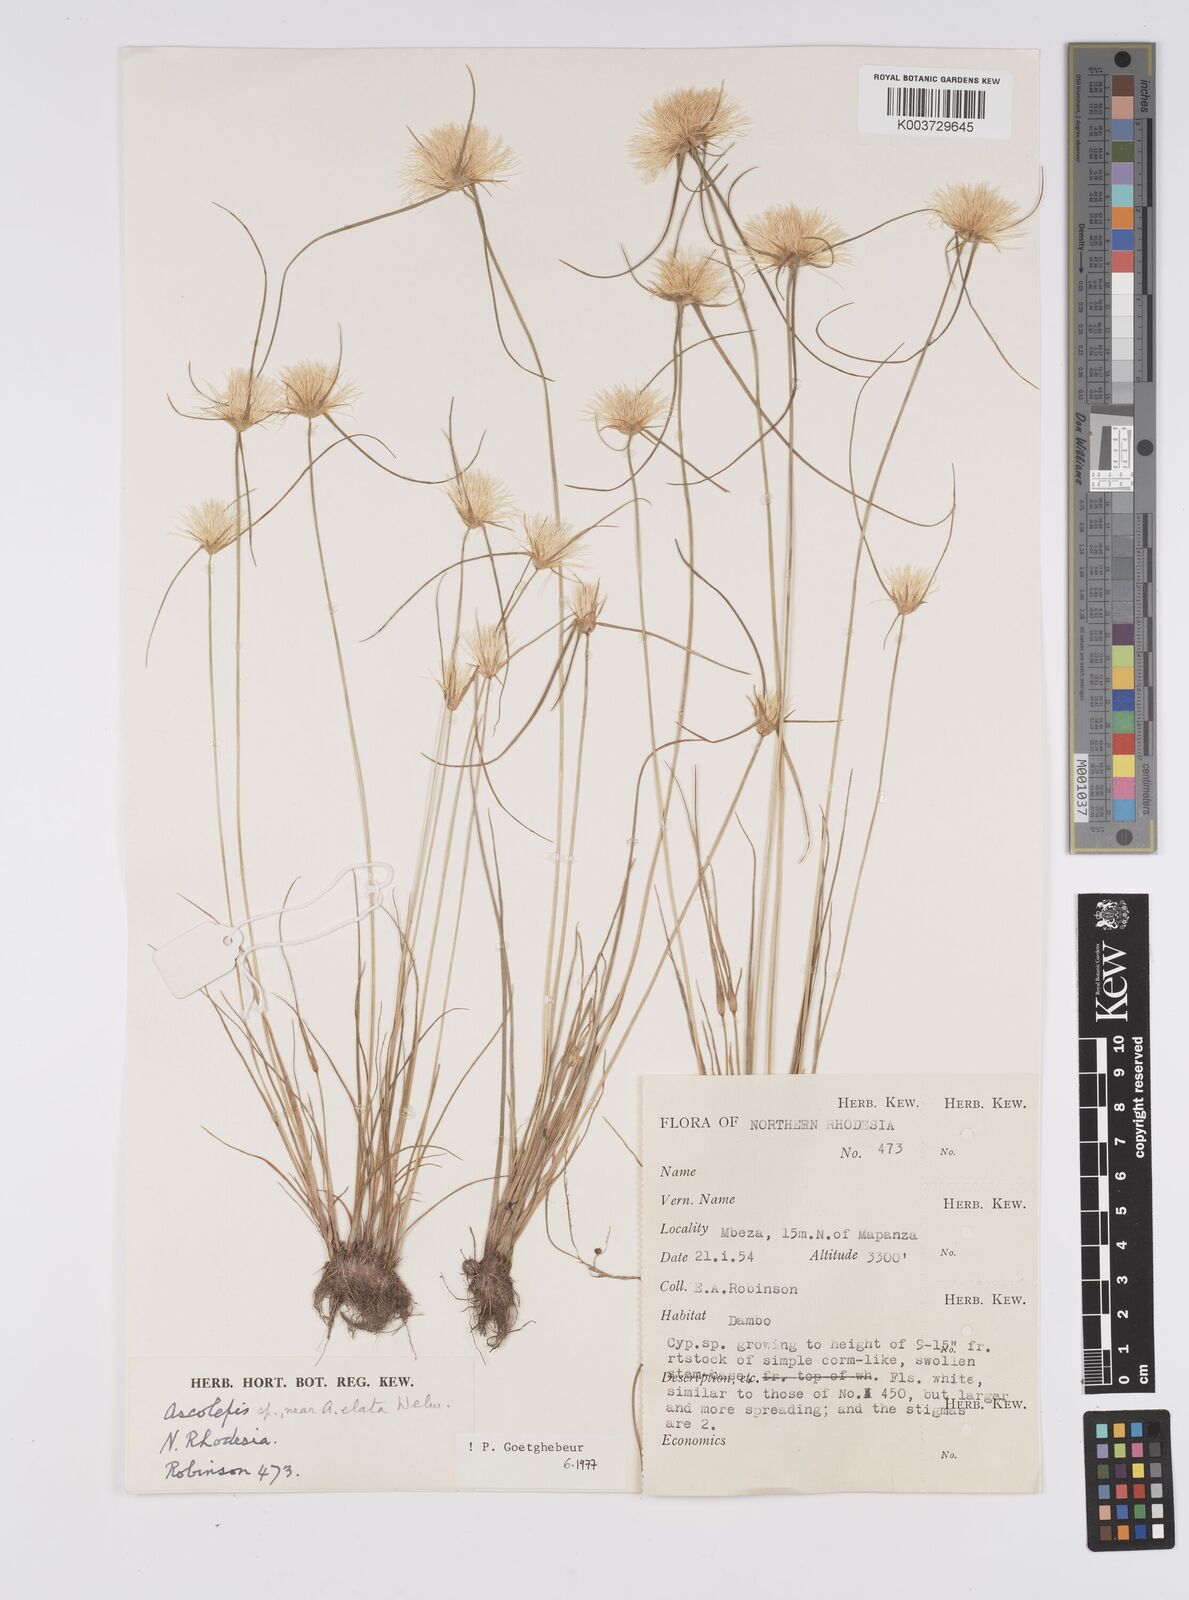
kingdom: Plantae
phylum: Tracheophyta
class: Liliopsida
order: Poales
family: Cyperaceae
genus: Cyperus
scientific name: Cyperus
